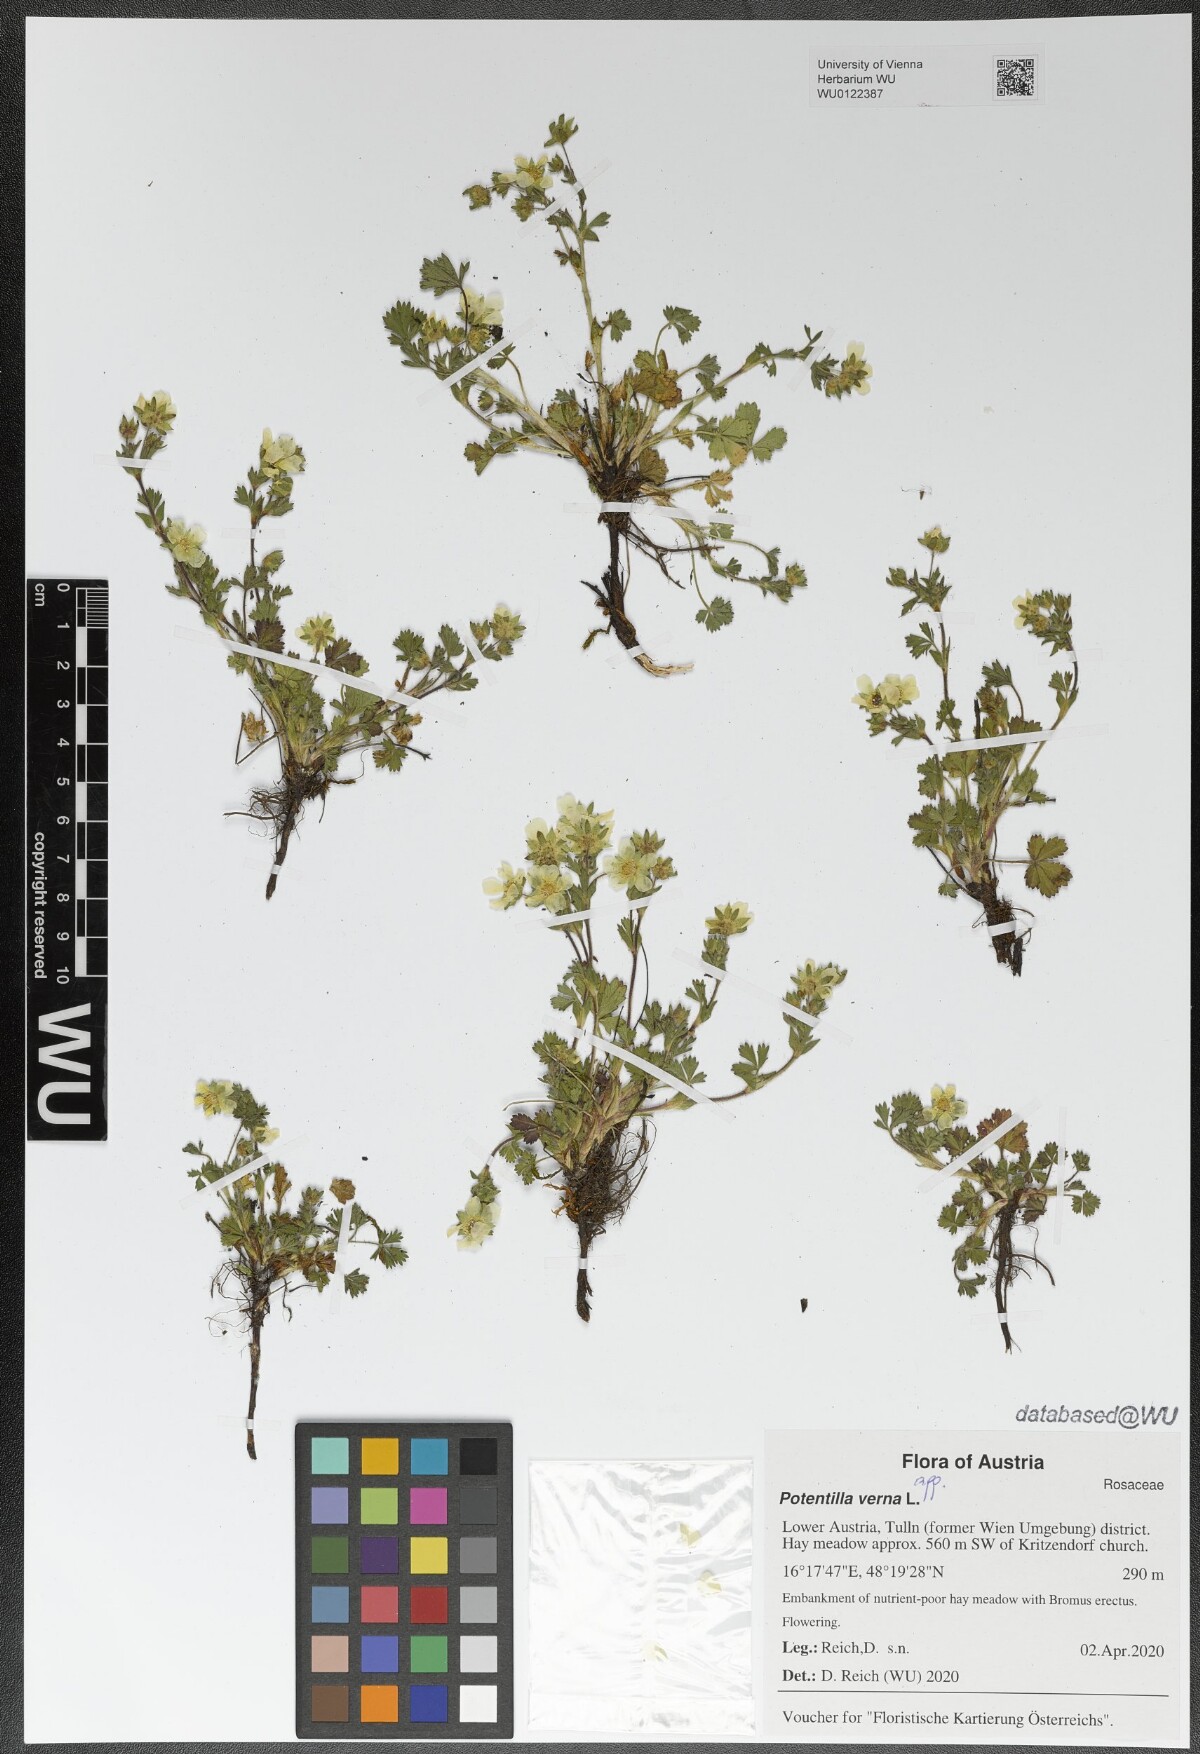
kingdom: Plantae
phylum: Tracheophyta
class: Magnoliopsida
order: Rosales
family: Rosaceae
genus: Potentilla
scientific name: Potentilla verna
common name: Spring cinquefoil
